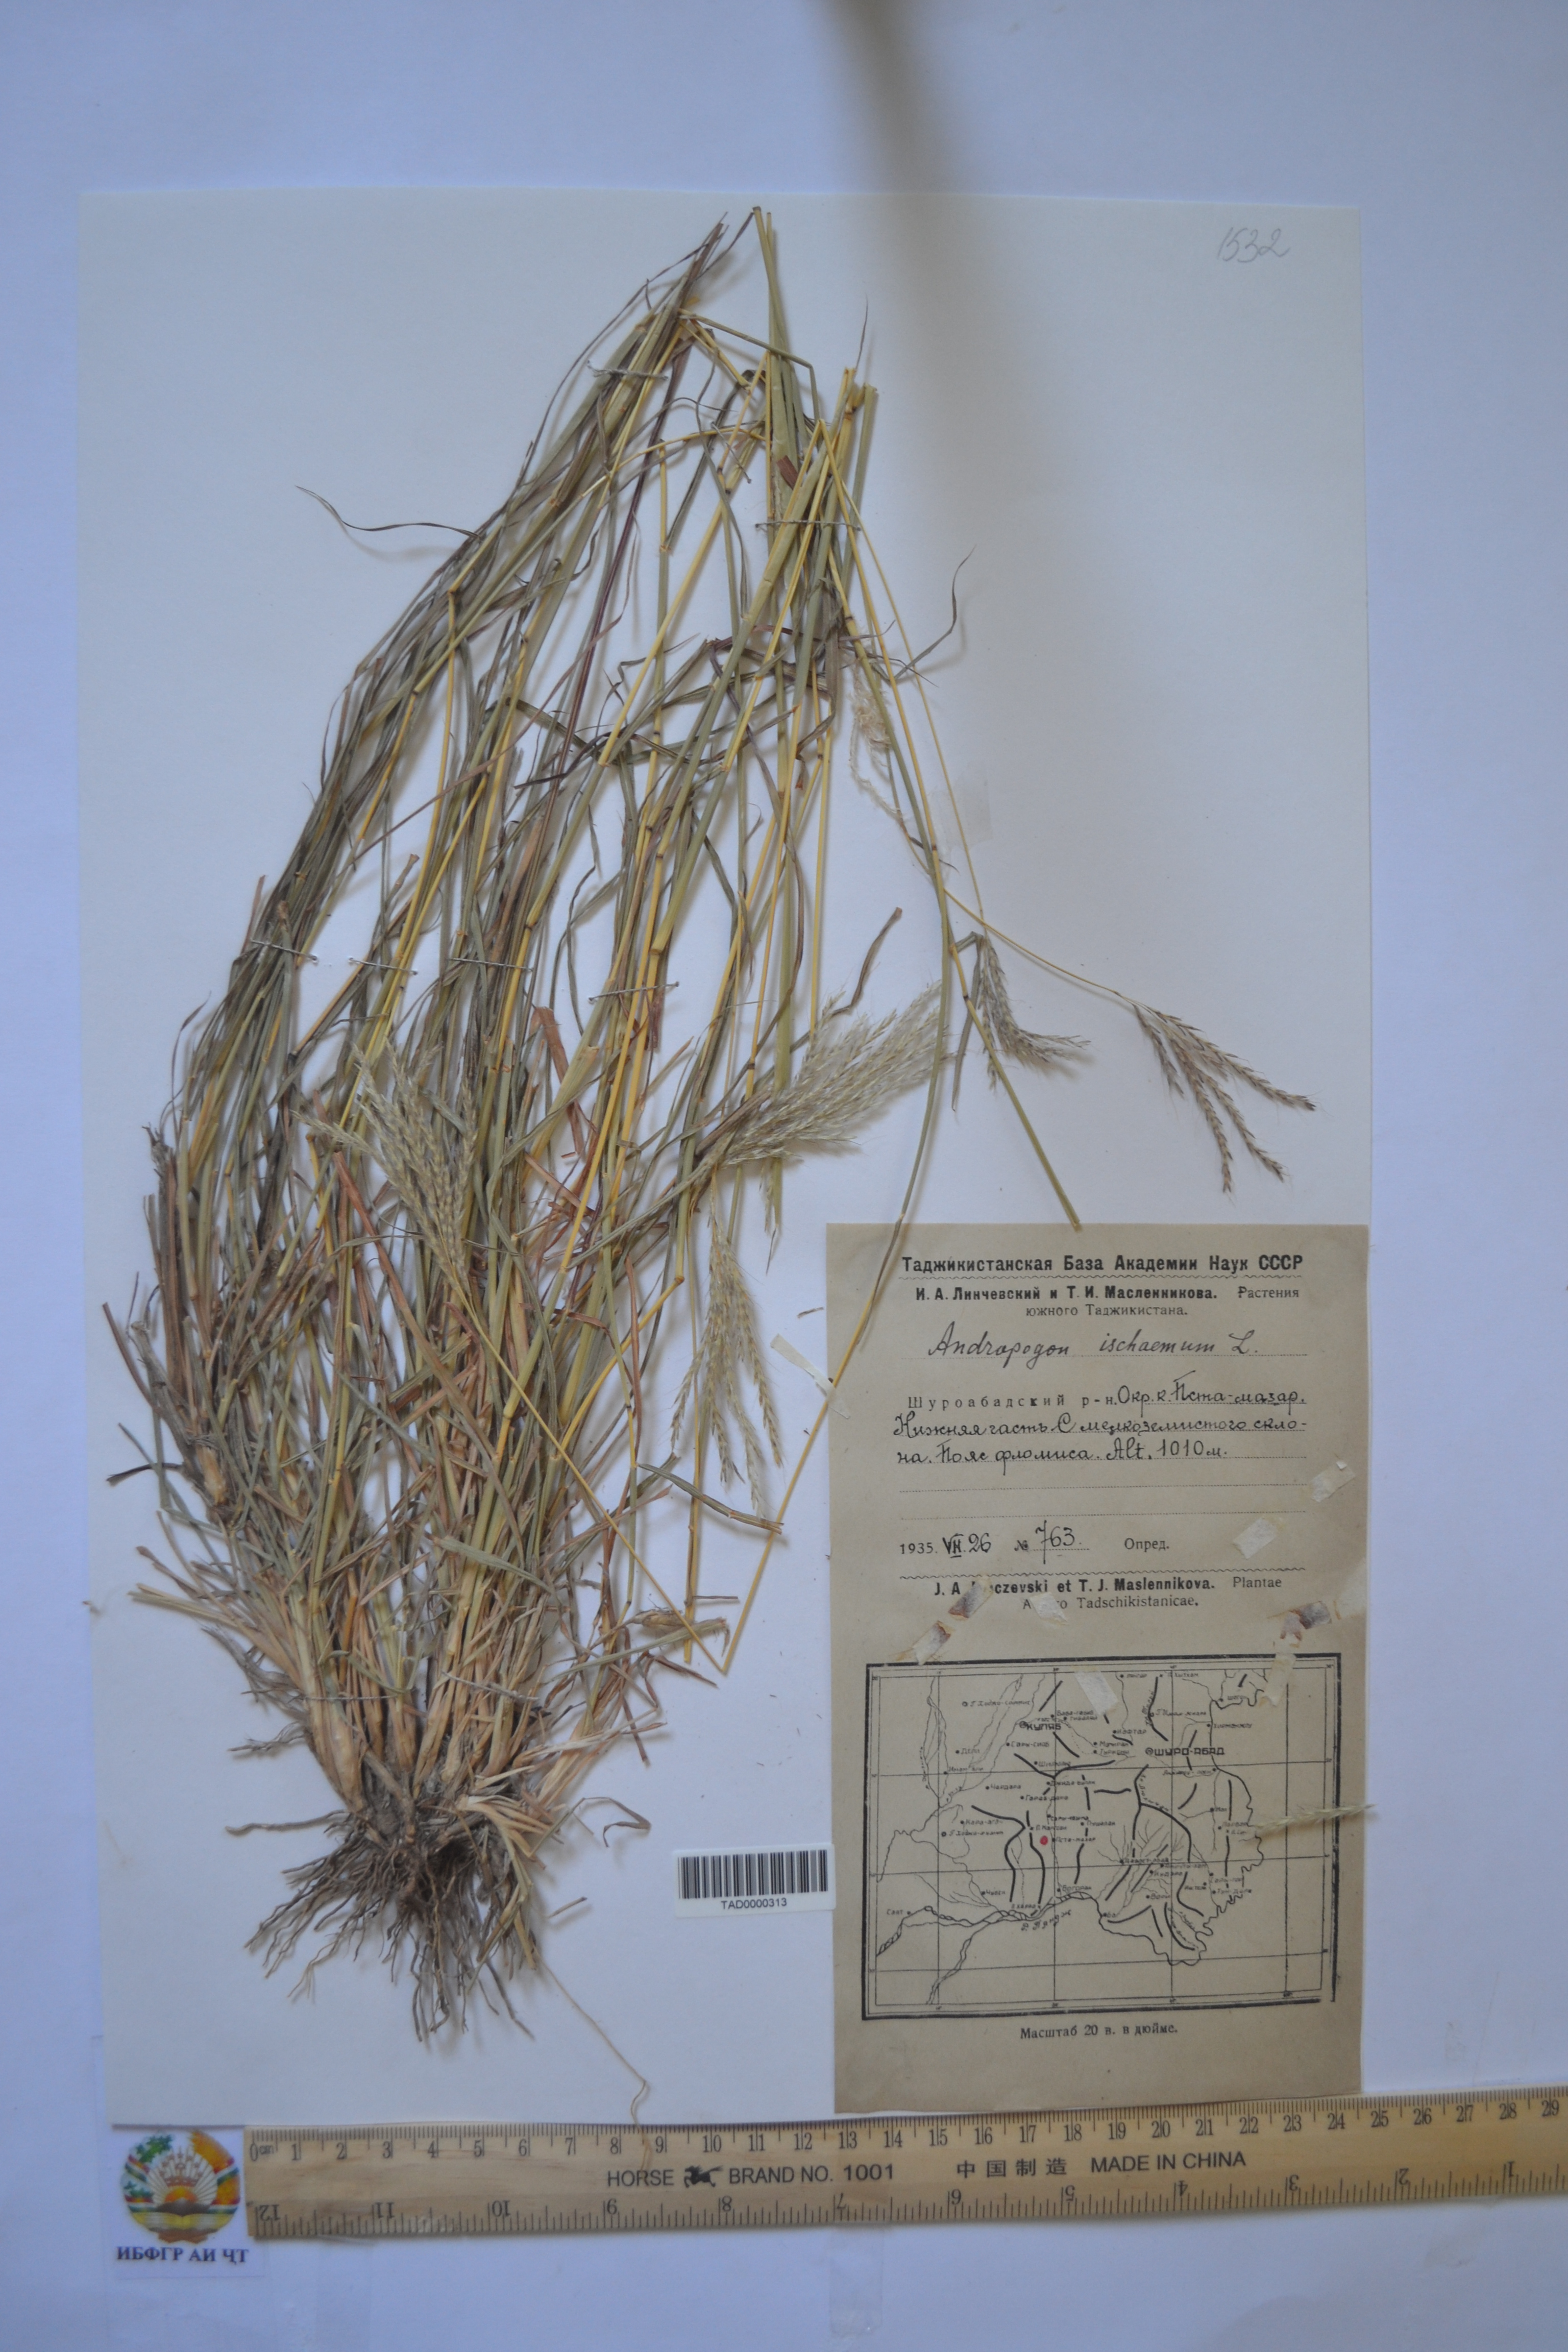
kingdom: Plantae
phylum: Tracheophyta
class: Liliopsida
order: Poales
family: Poaceae
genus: Bothriochloa
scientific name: Bothriochloa ischaemum
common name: Yellow bluestem
